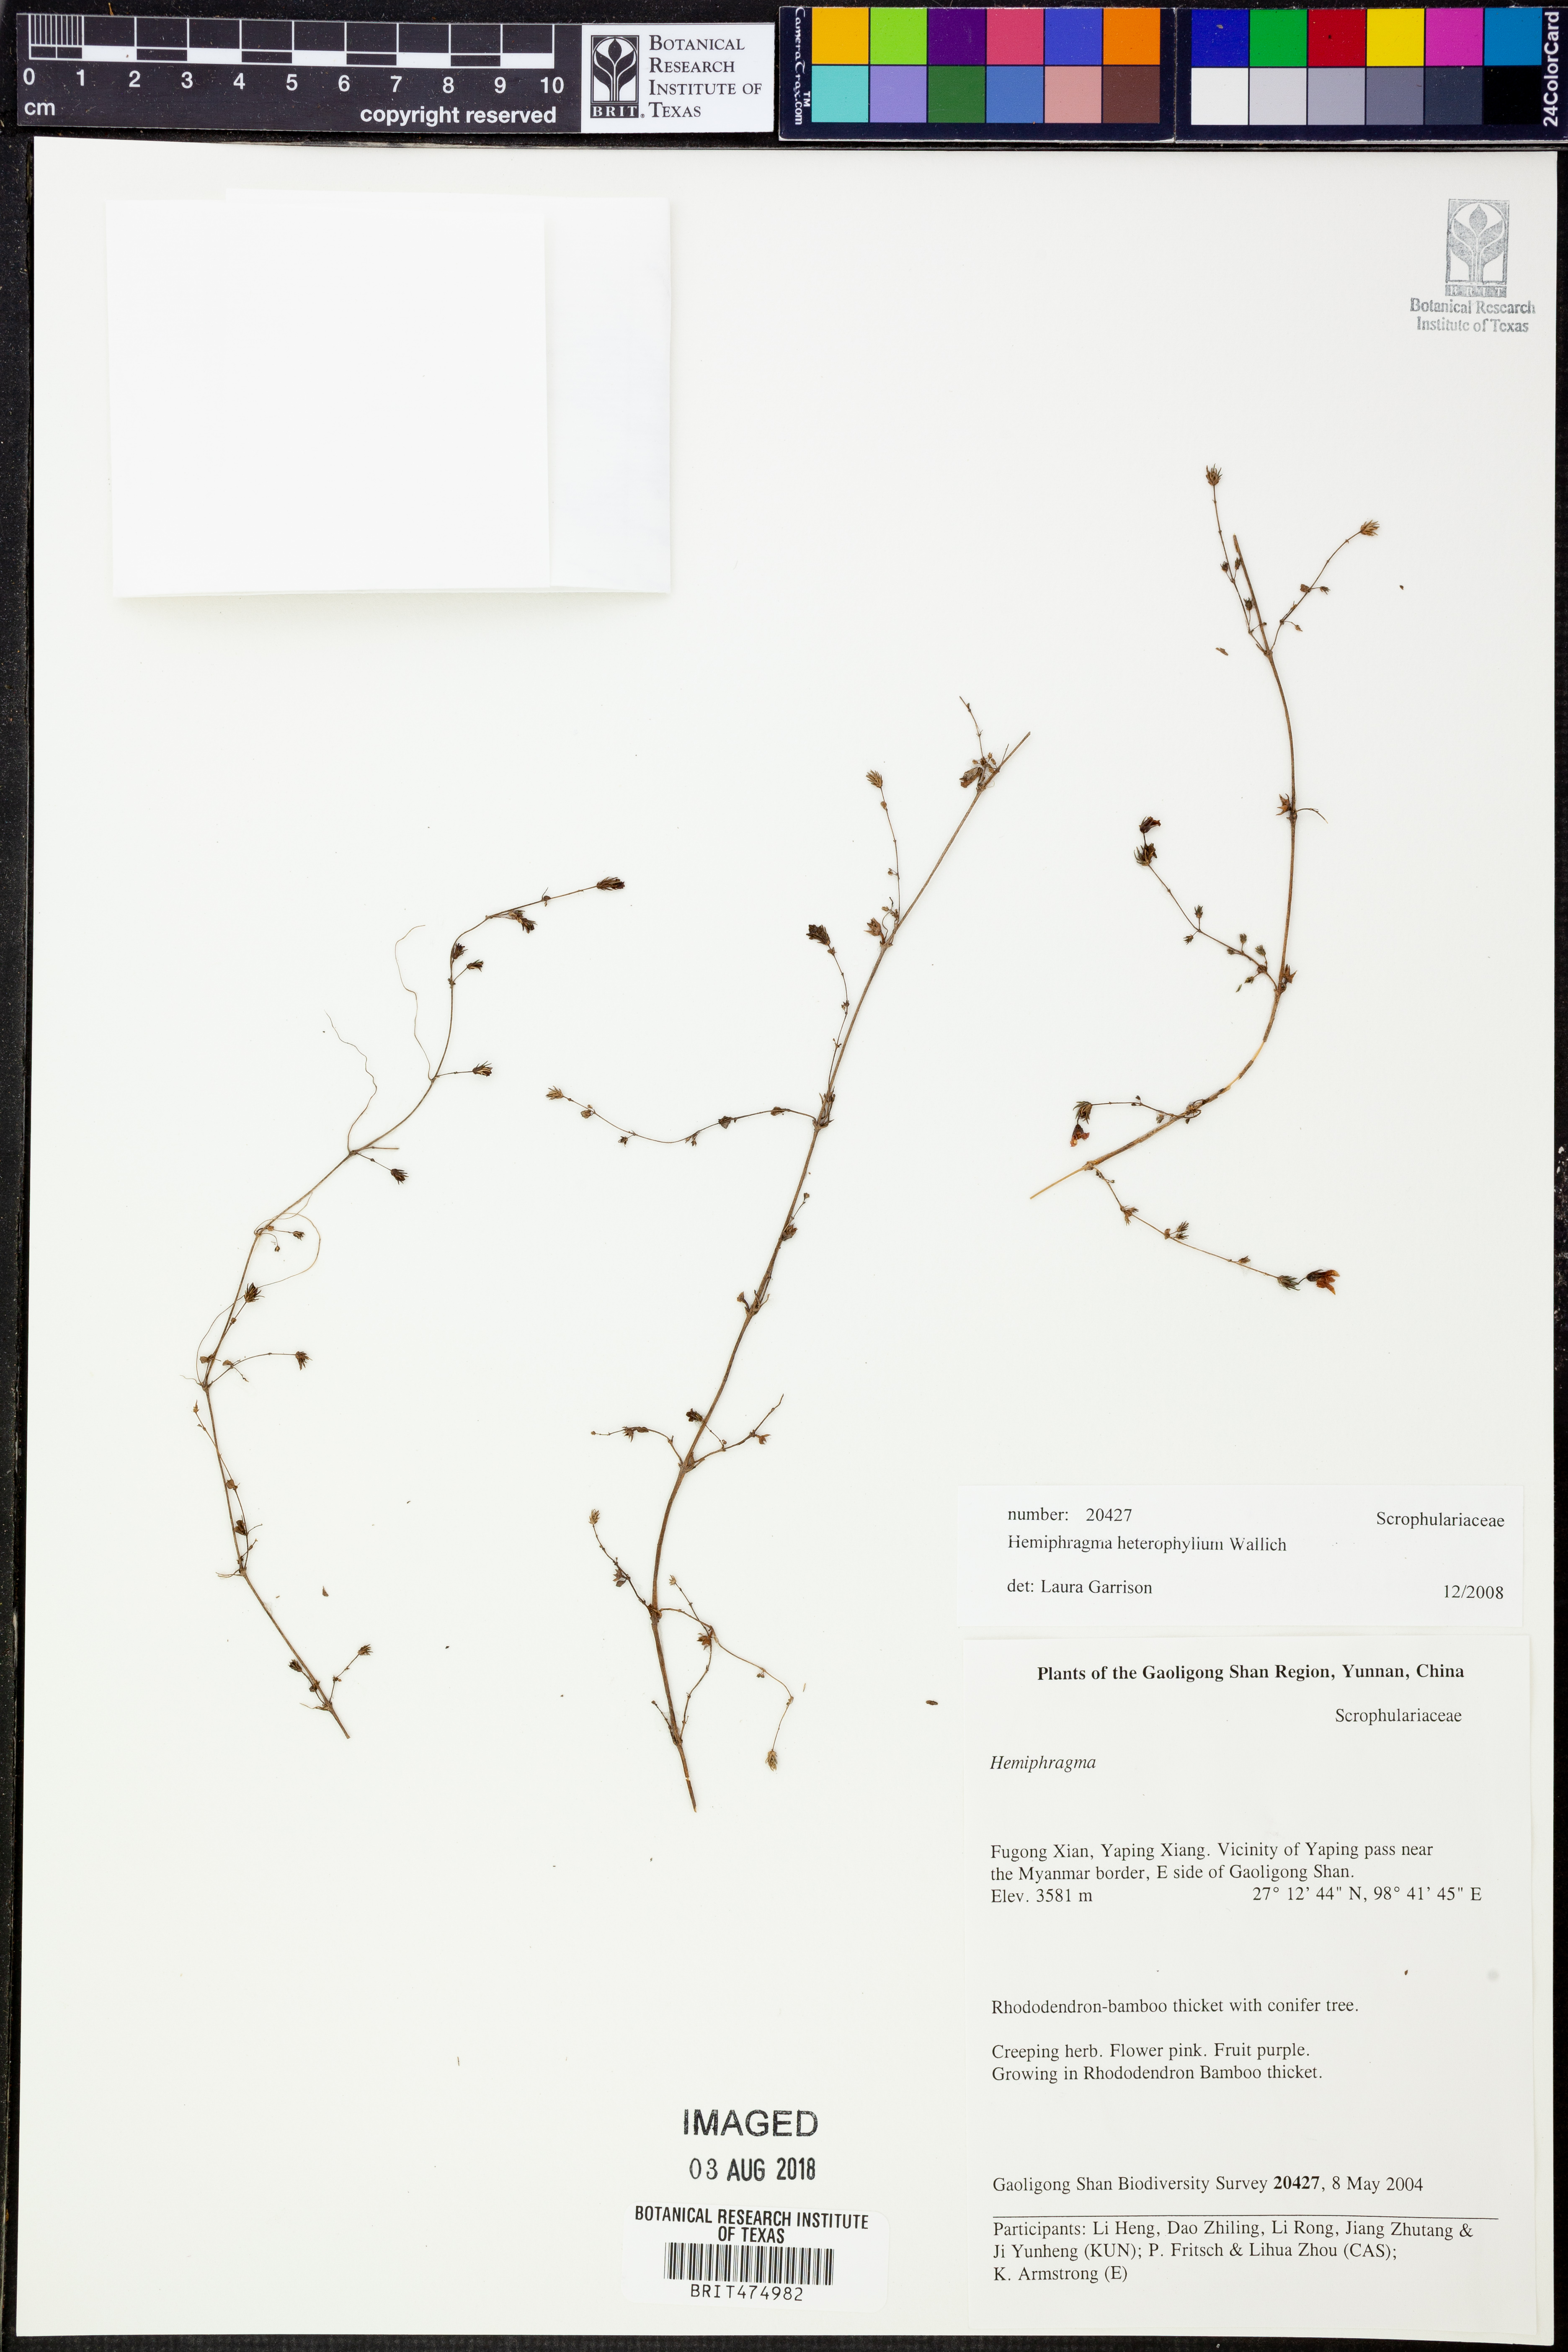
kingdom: Plantae
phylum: Tracheophyta
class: Magnoliopsida
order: Lamiales
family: Plantaginaceae
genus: Hemiphragma
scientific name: Hemiphragma heterophyllum
